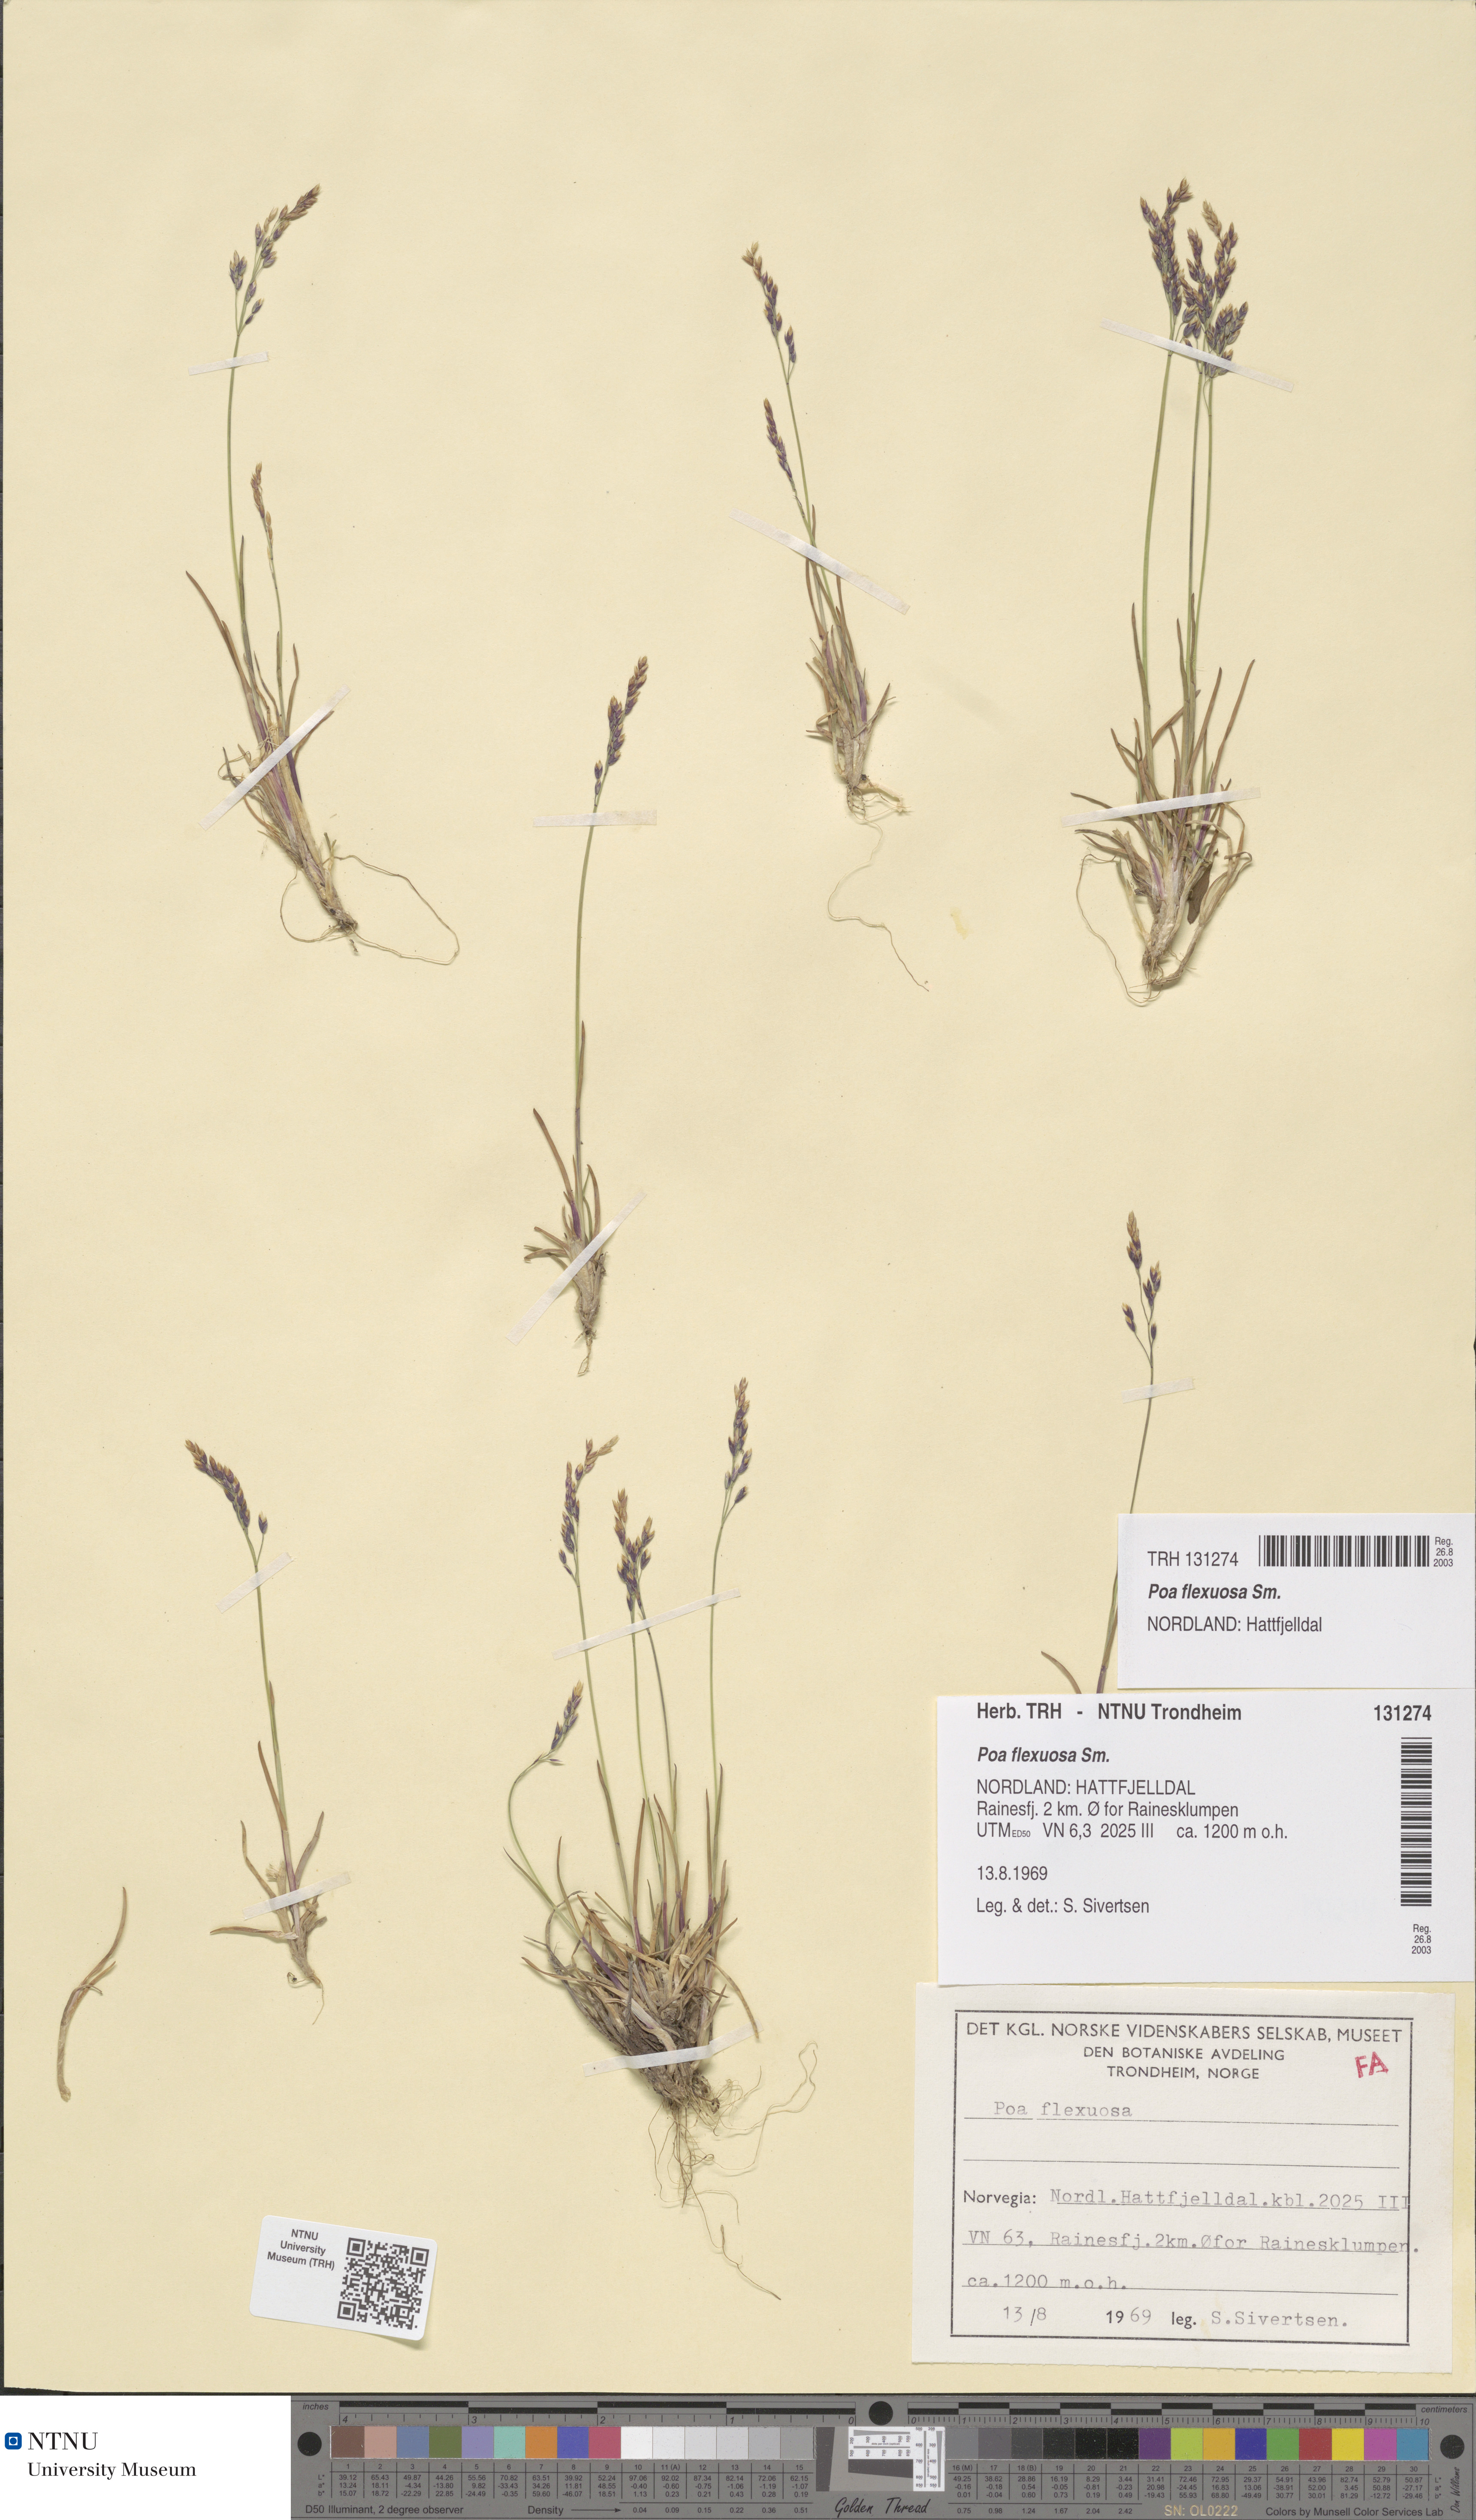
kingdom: Plantae
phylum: Tracheophyta
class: Liliopsida
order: Poales
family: Poaceae
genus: Poa
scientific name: Poa flexuosa
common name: Wavy meadow-grass
